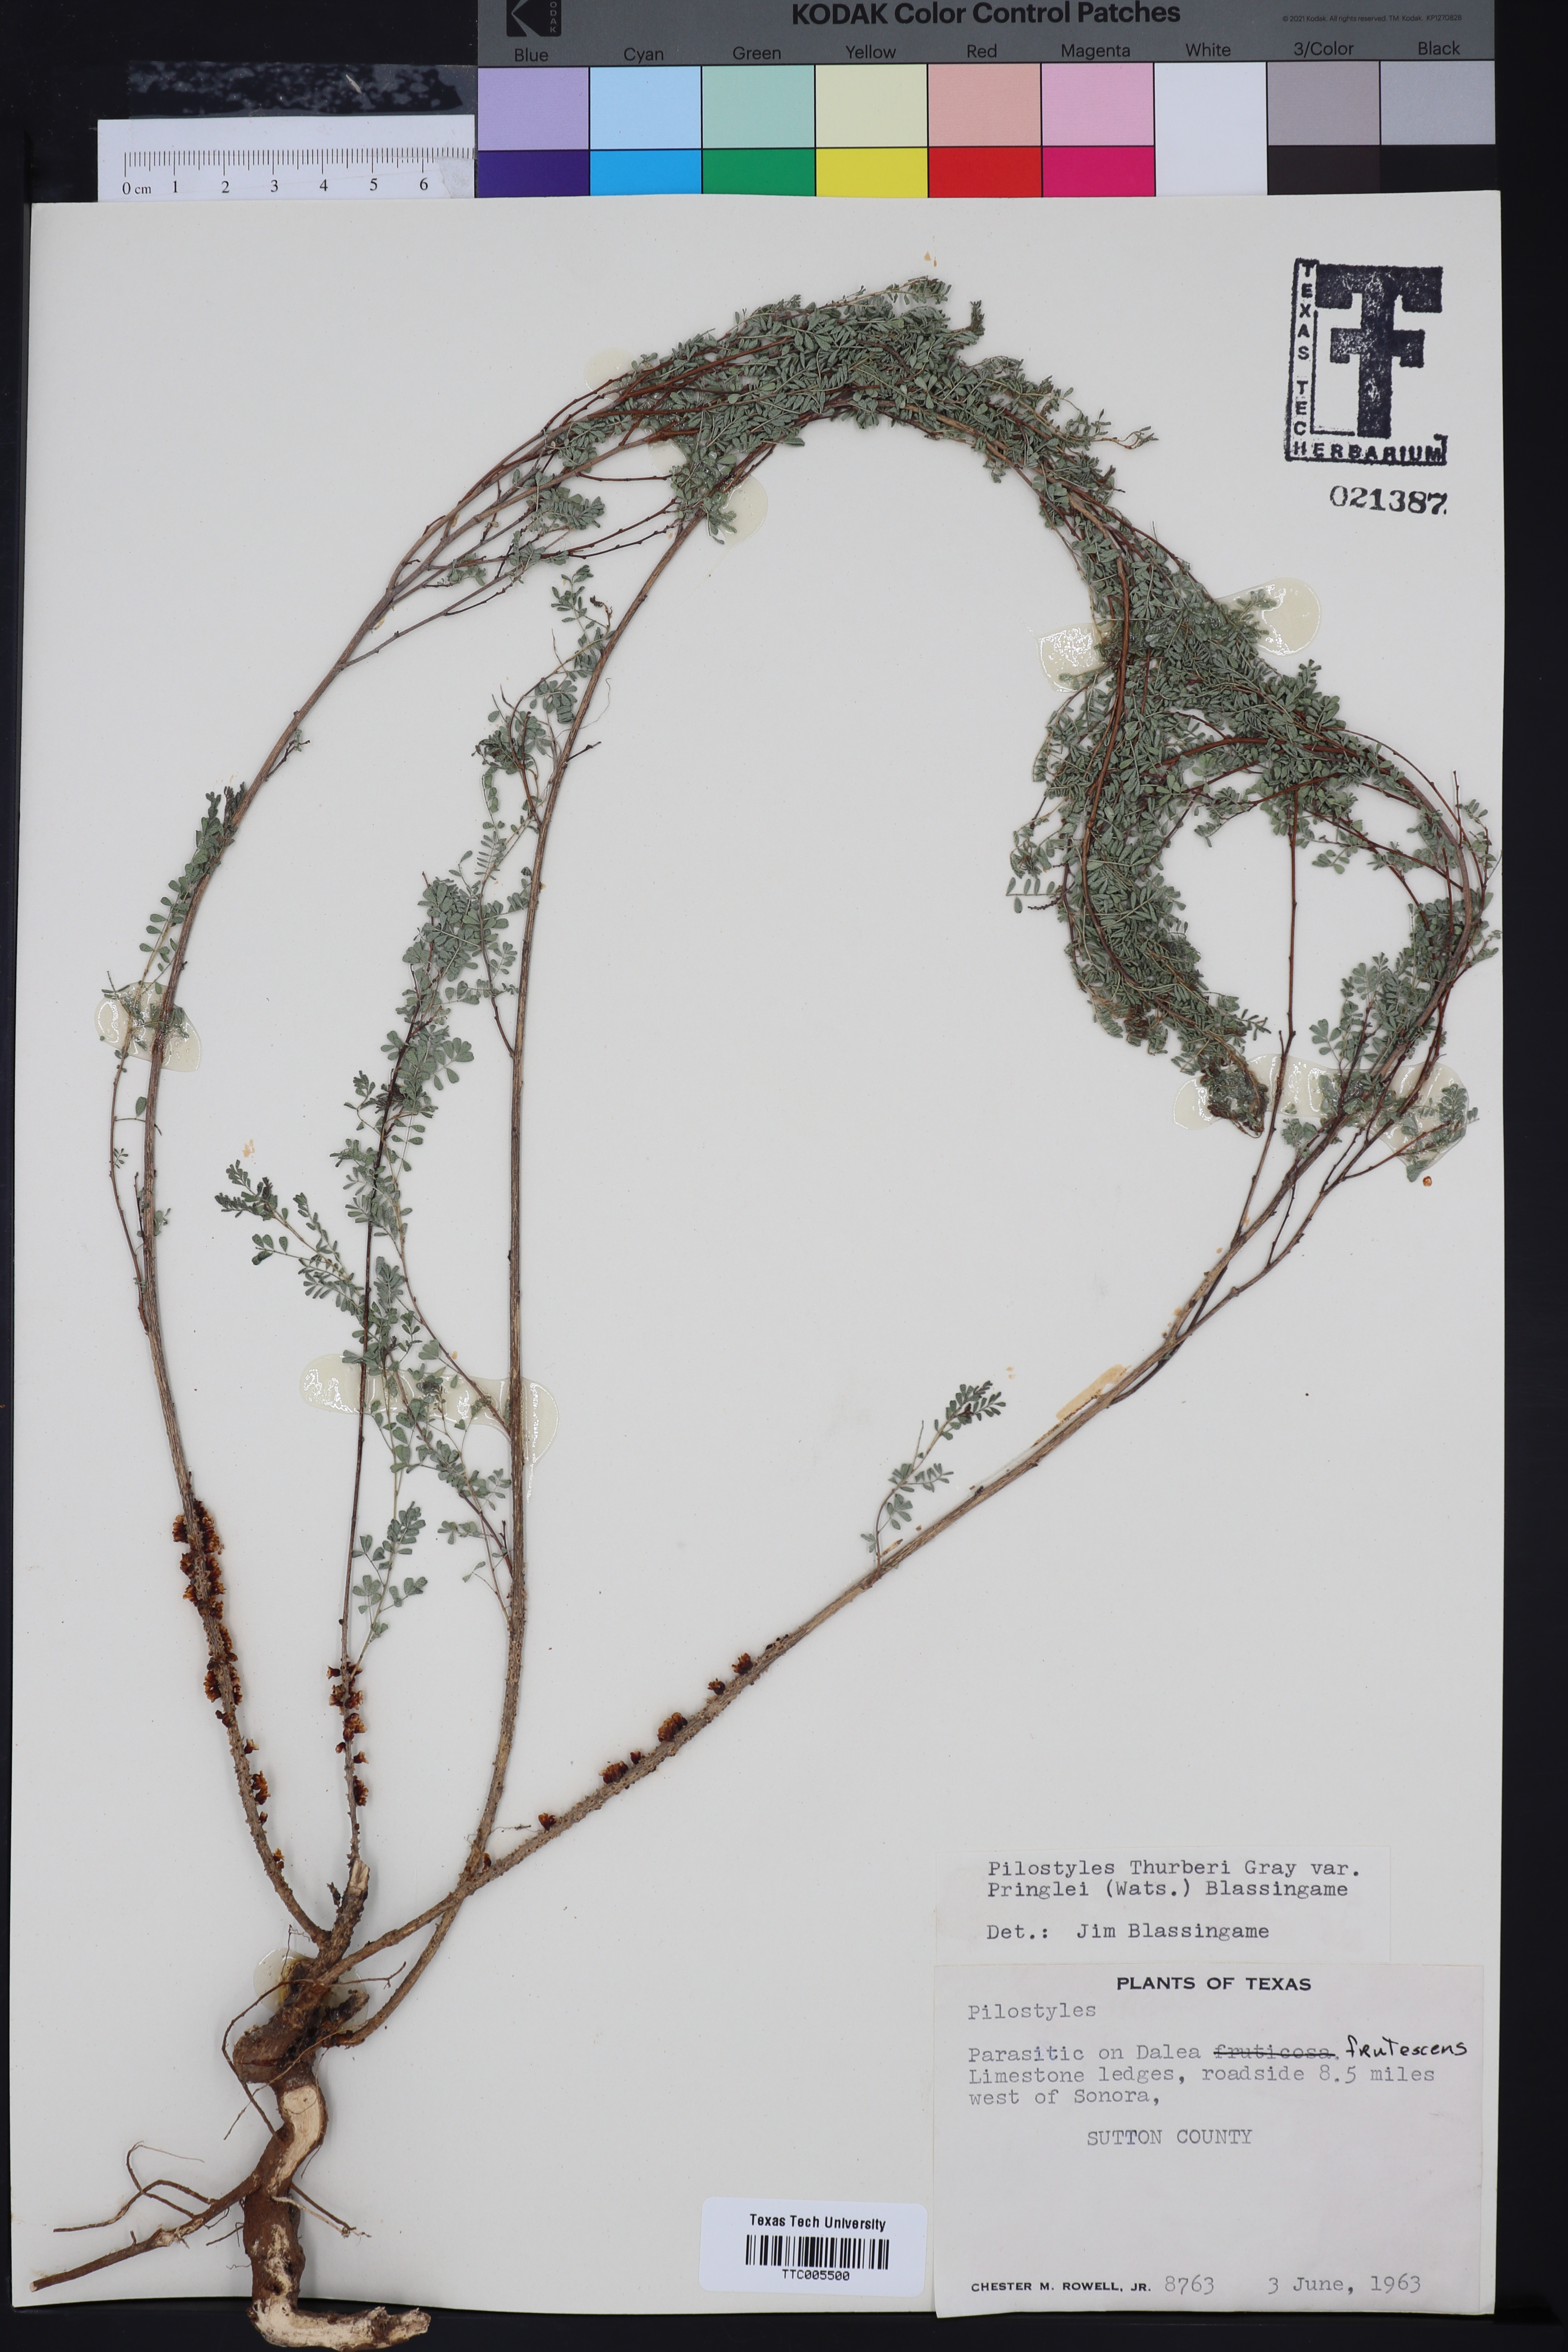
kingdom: Plantae
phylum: Tracheophyta
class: Magnoliopsida
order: Cucurbitales
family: Apodanthaceae
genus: Pilostyles
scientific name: Pilostyles
